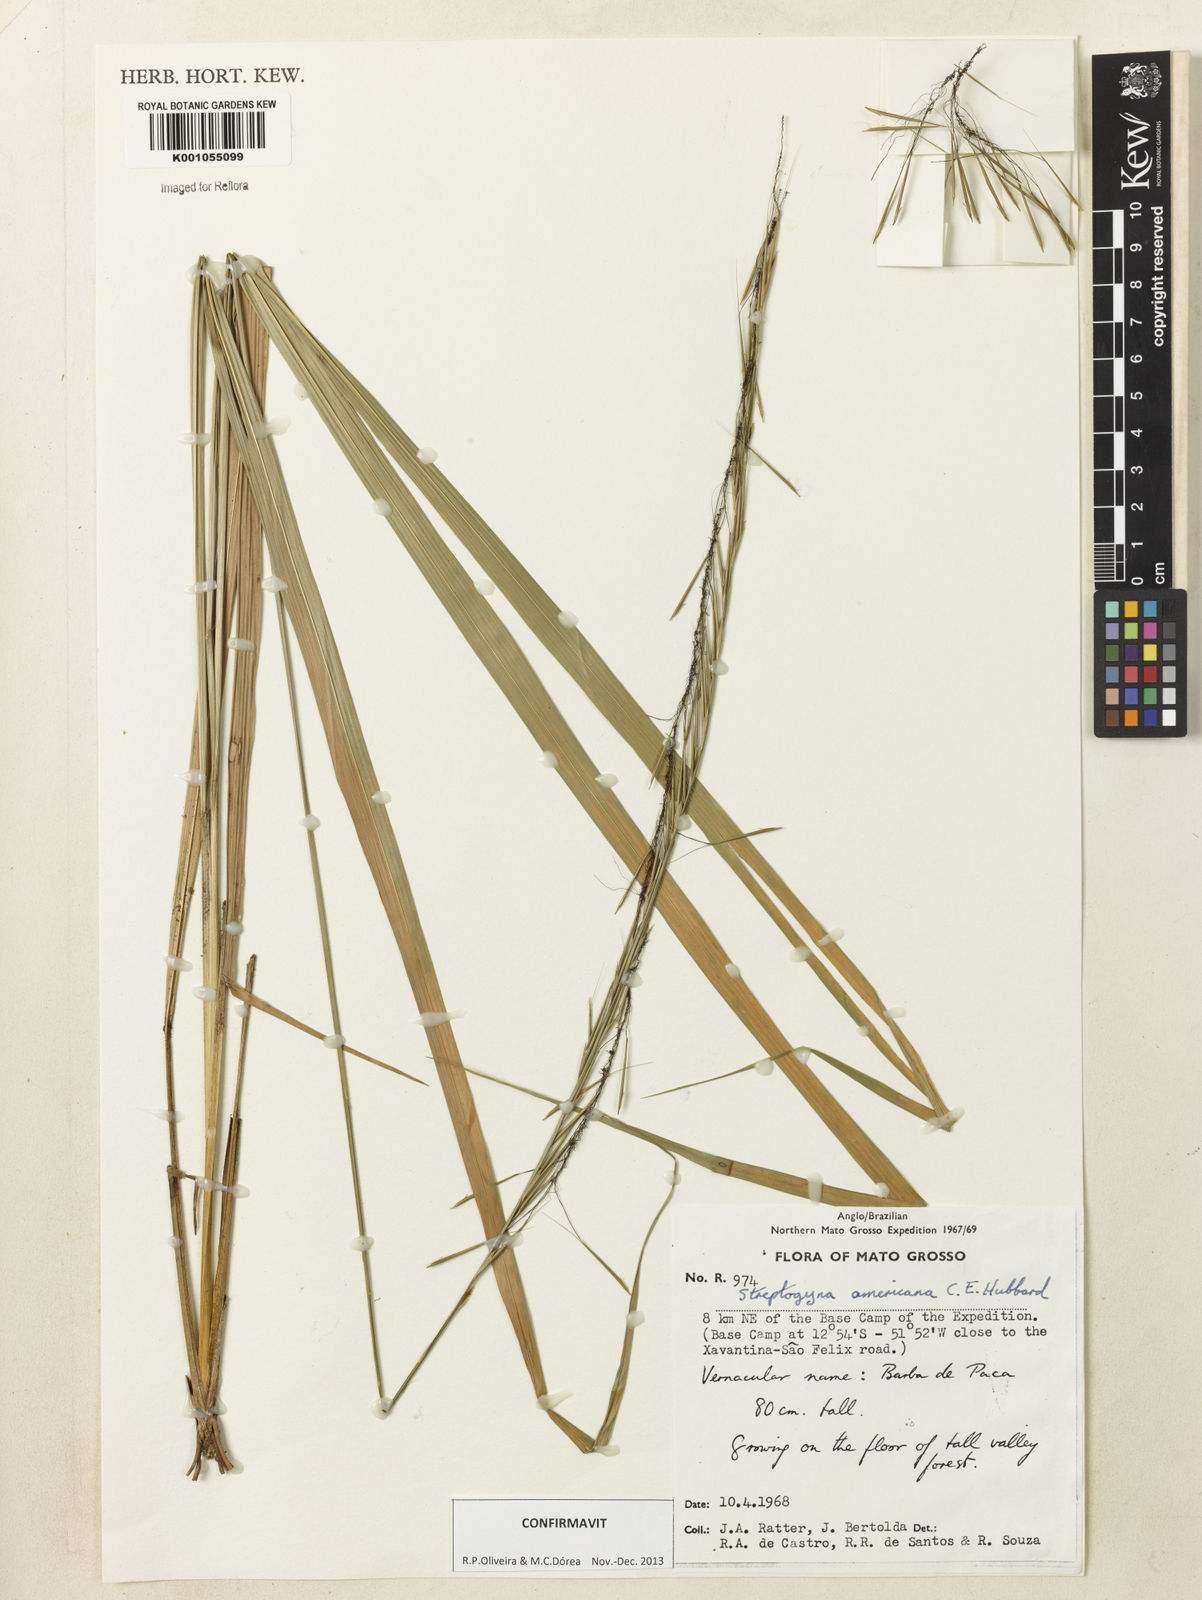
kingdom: Plantae
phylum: Tracheophyta
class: Liliopsida
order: Poales
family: Poaceae
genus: Streptogyna
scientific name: Streptogyna americana
